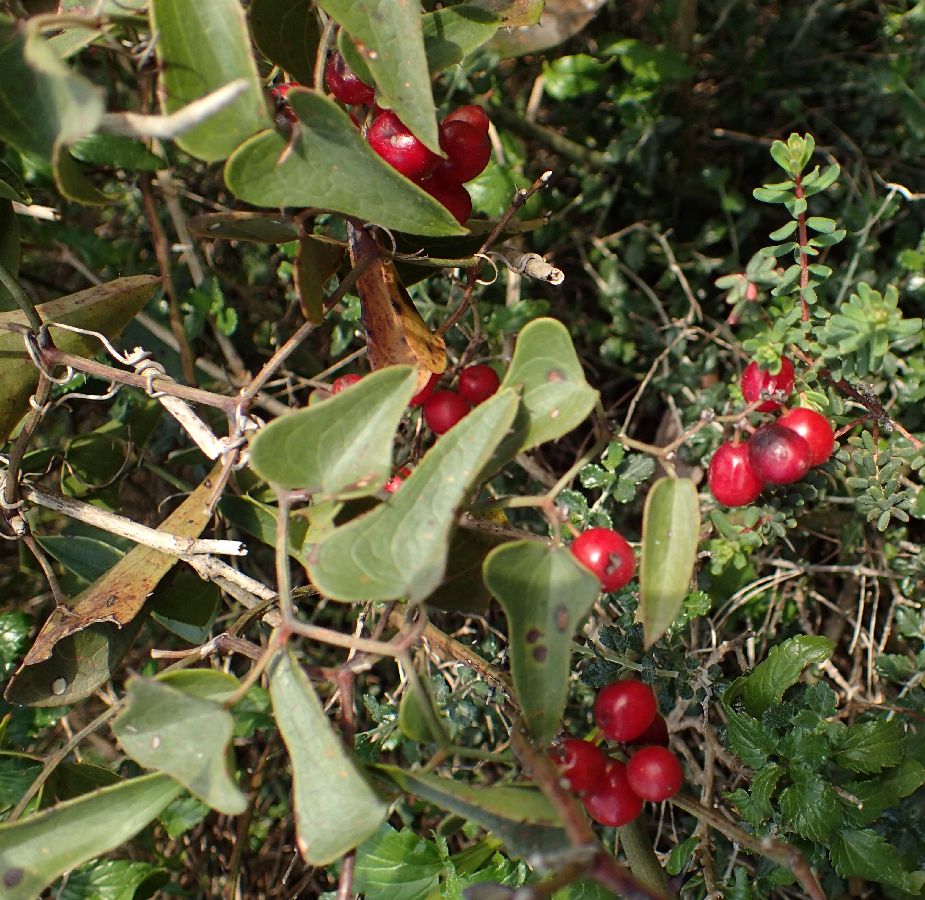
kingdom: Plantae
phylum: Tracheophyta
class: Liliopsida
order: Liliales
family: Smilacaceae
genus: Smilax
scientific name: Smilax aspera
